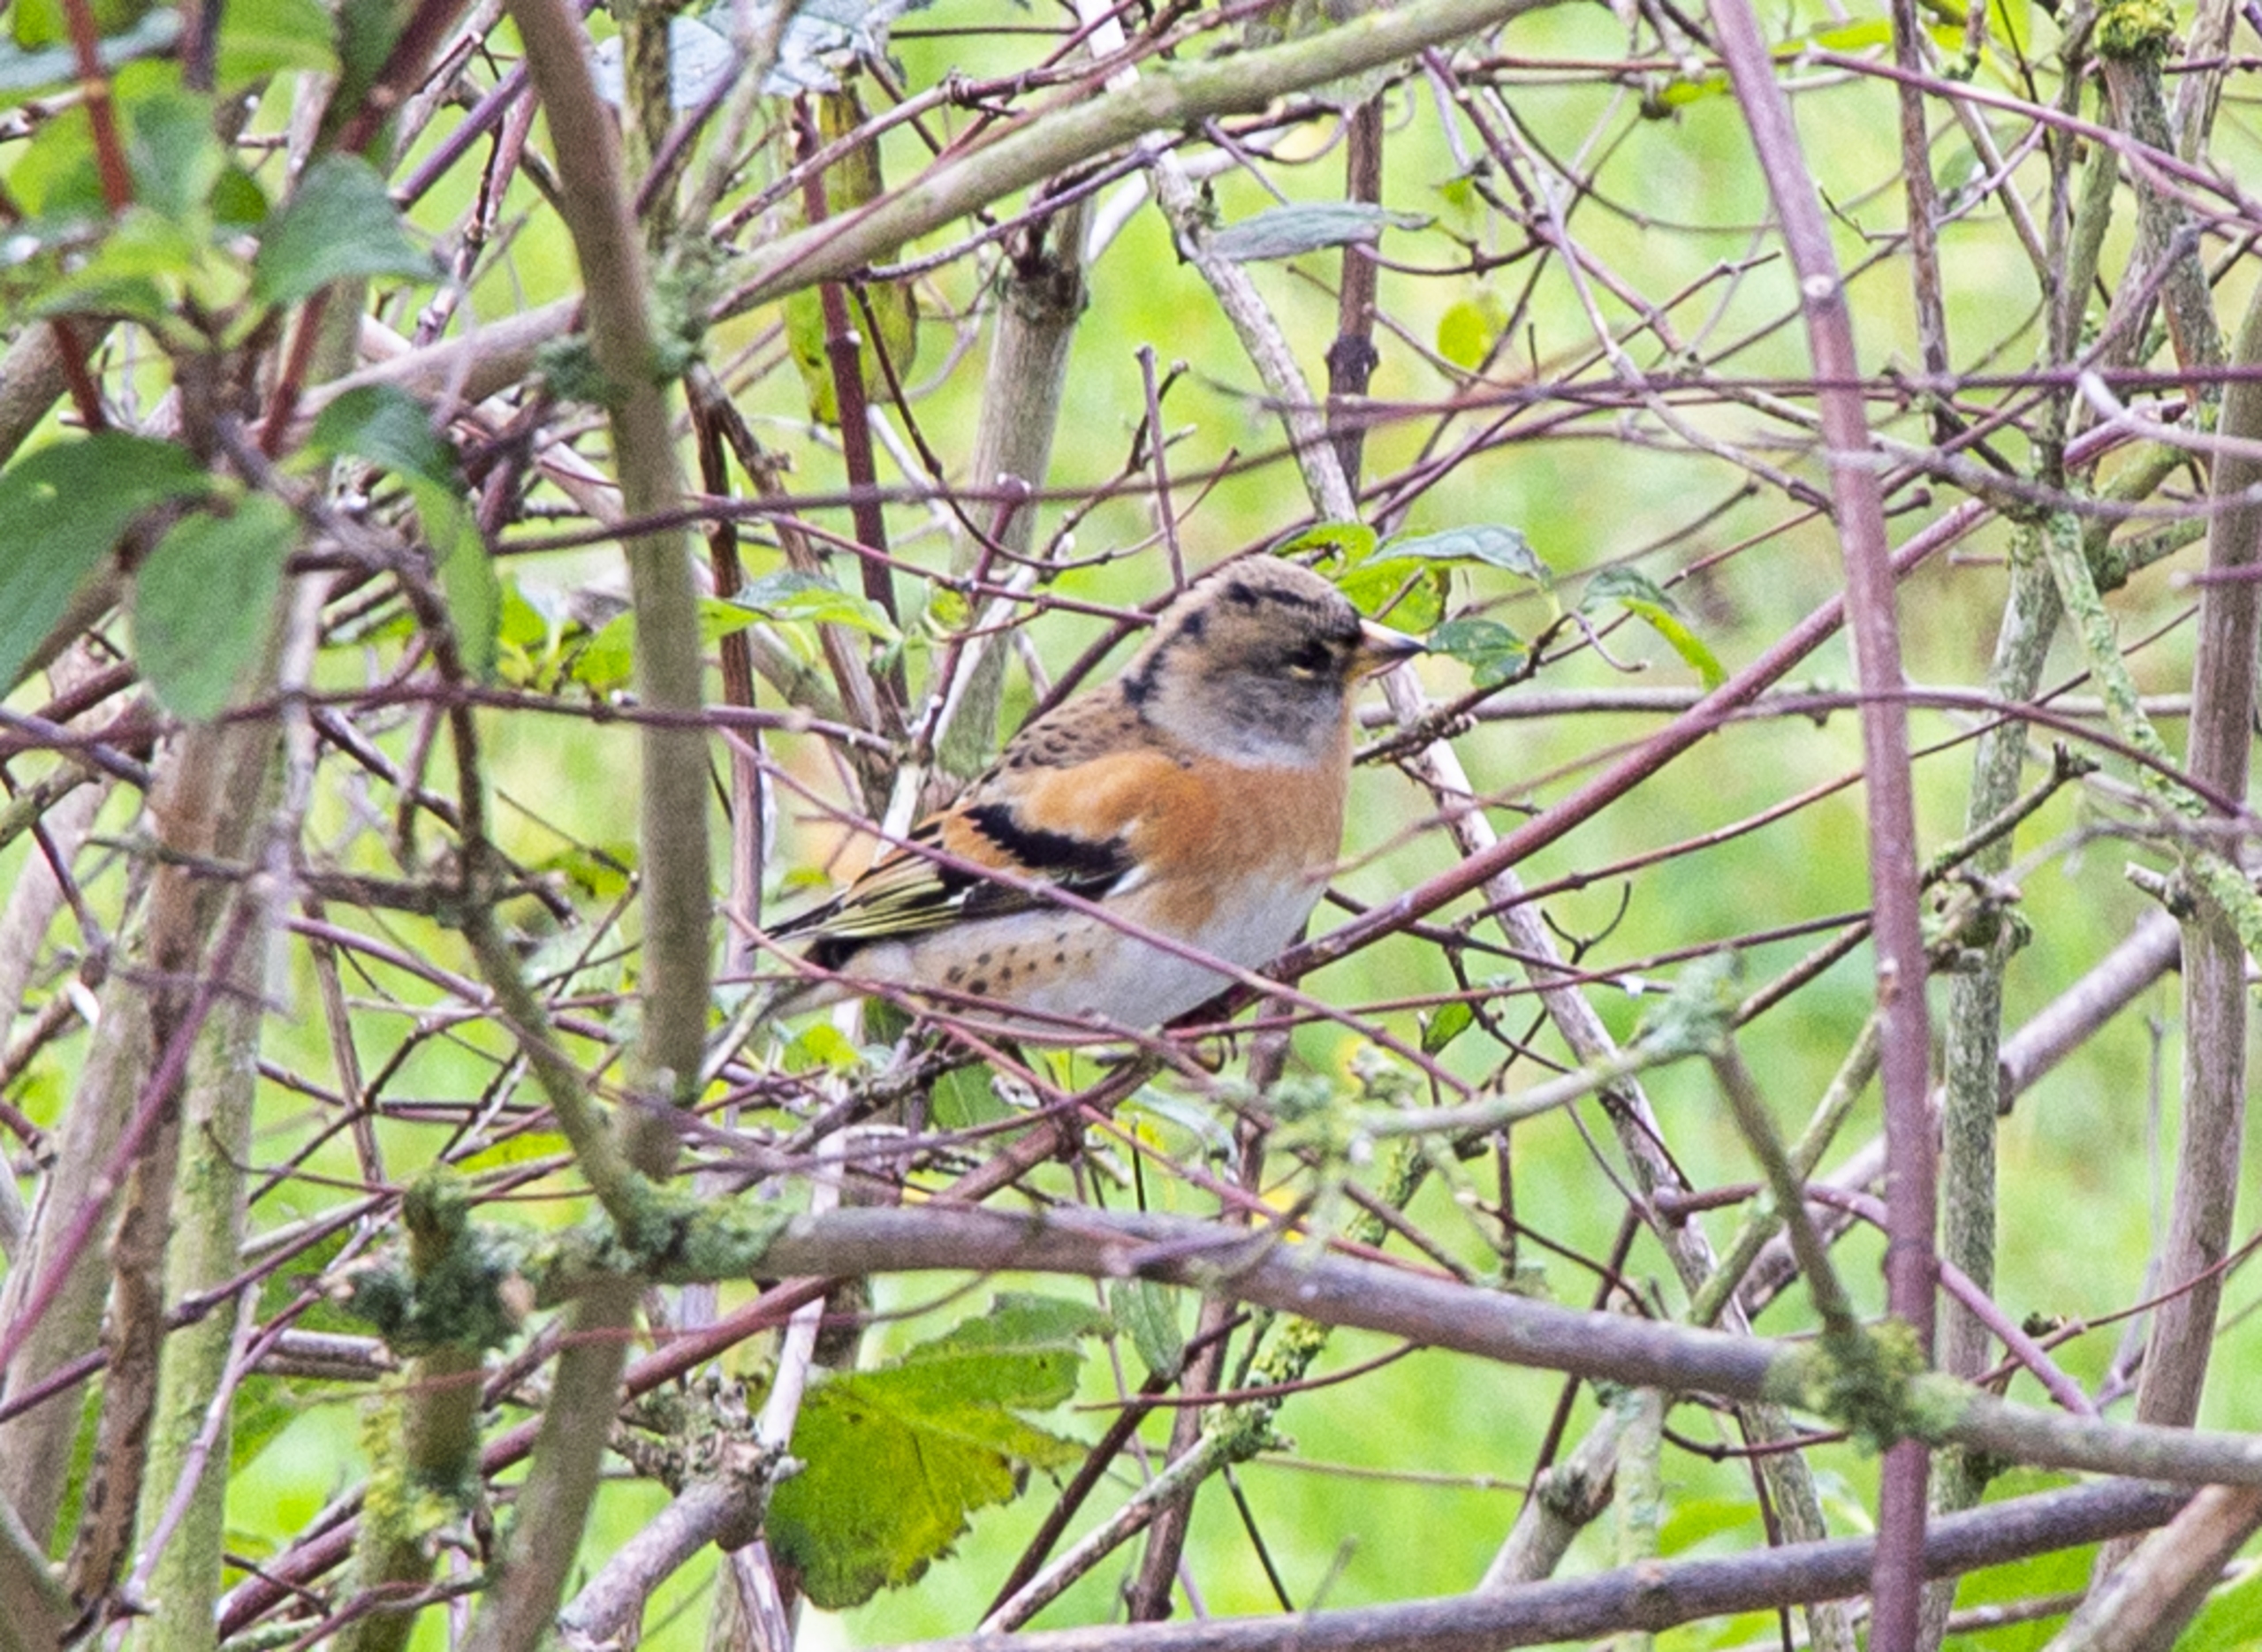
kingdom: Animalia
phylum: Chordata
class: Aves
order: Passeriformes
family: Fringillidae
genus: Fringilla
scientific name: Fringilla montifringilla
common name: Kvækerfinke
